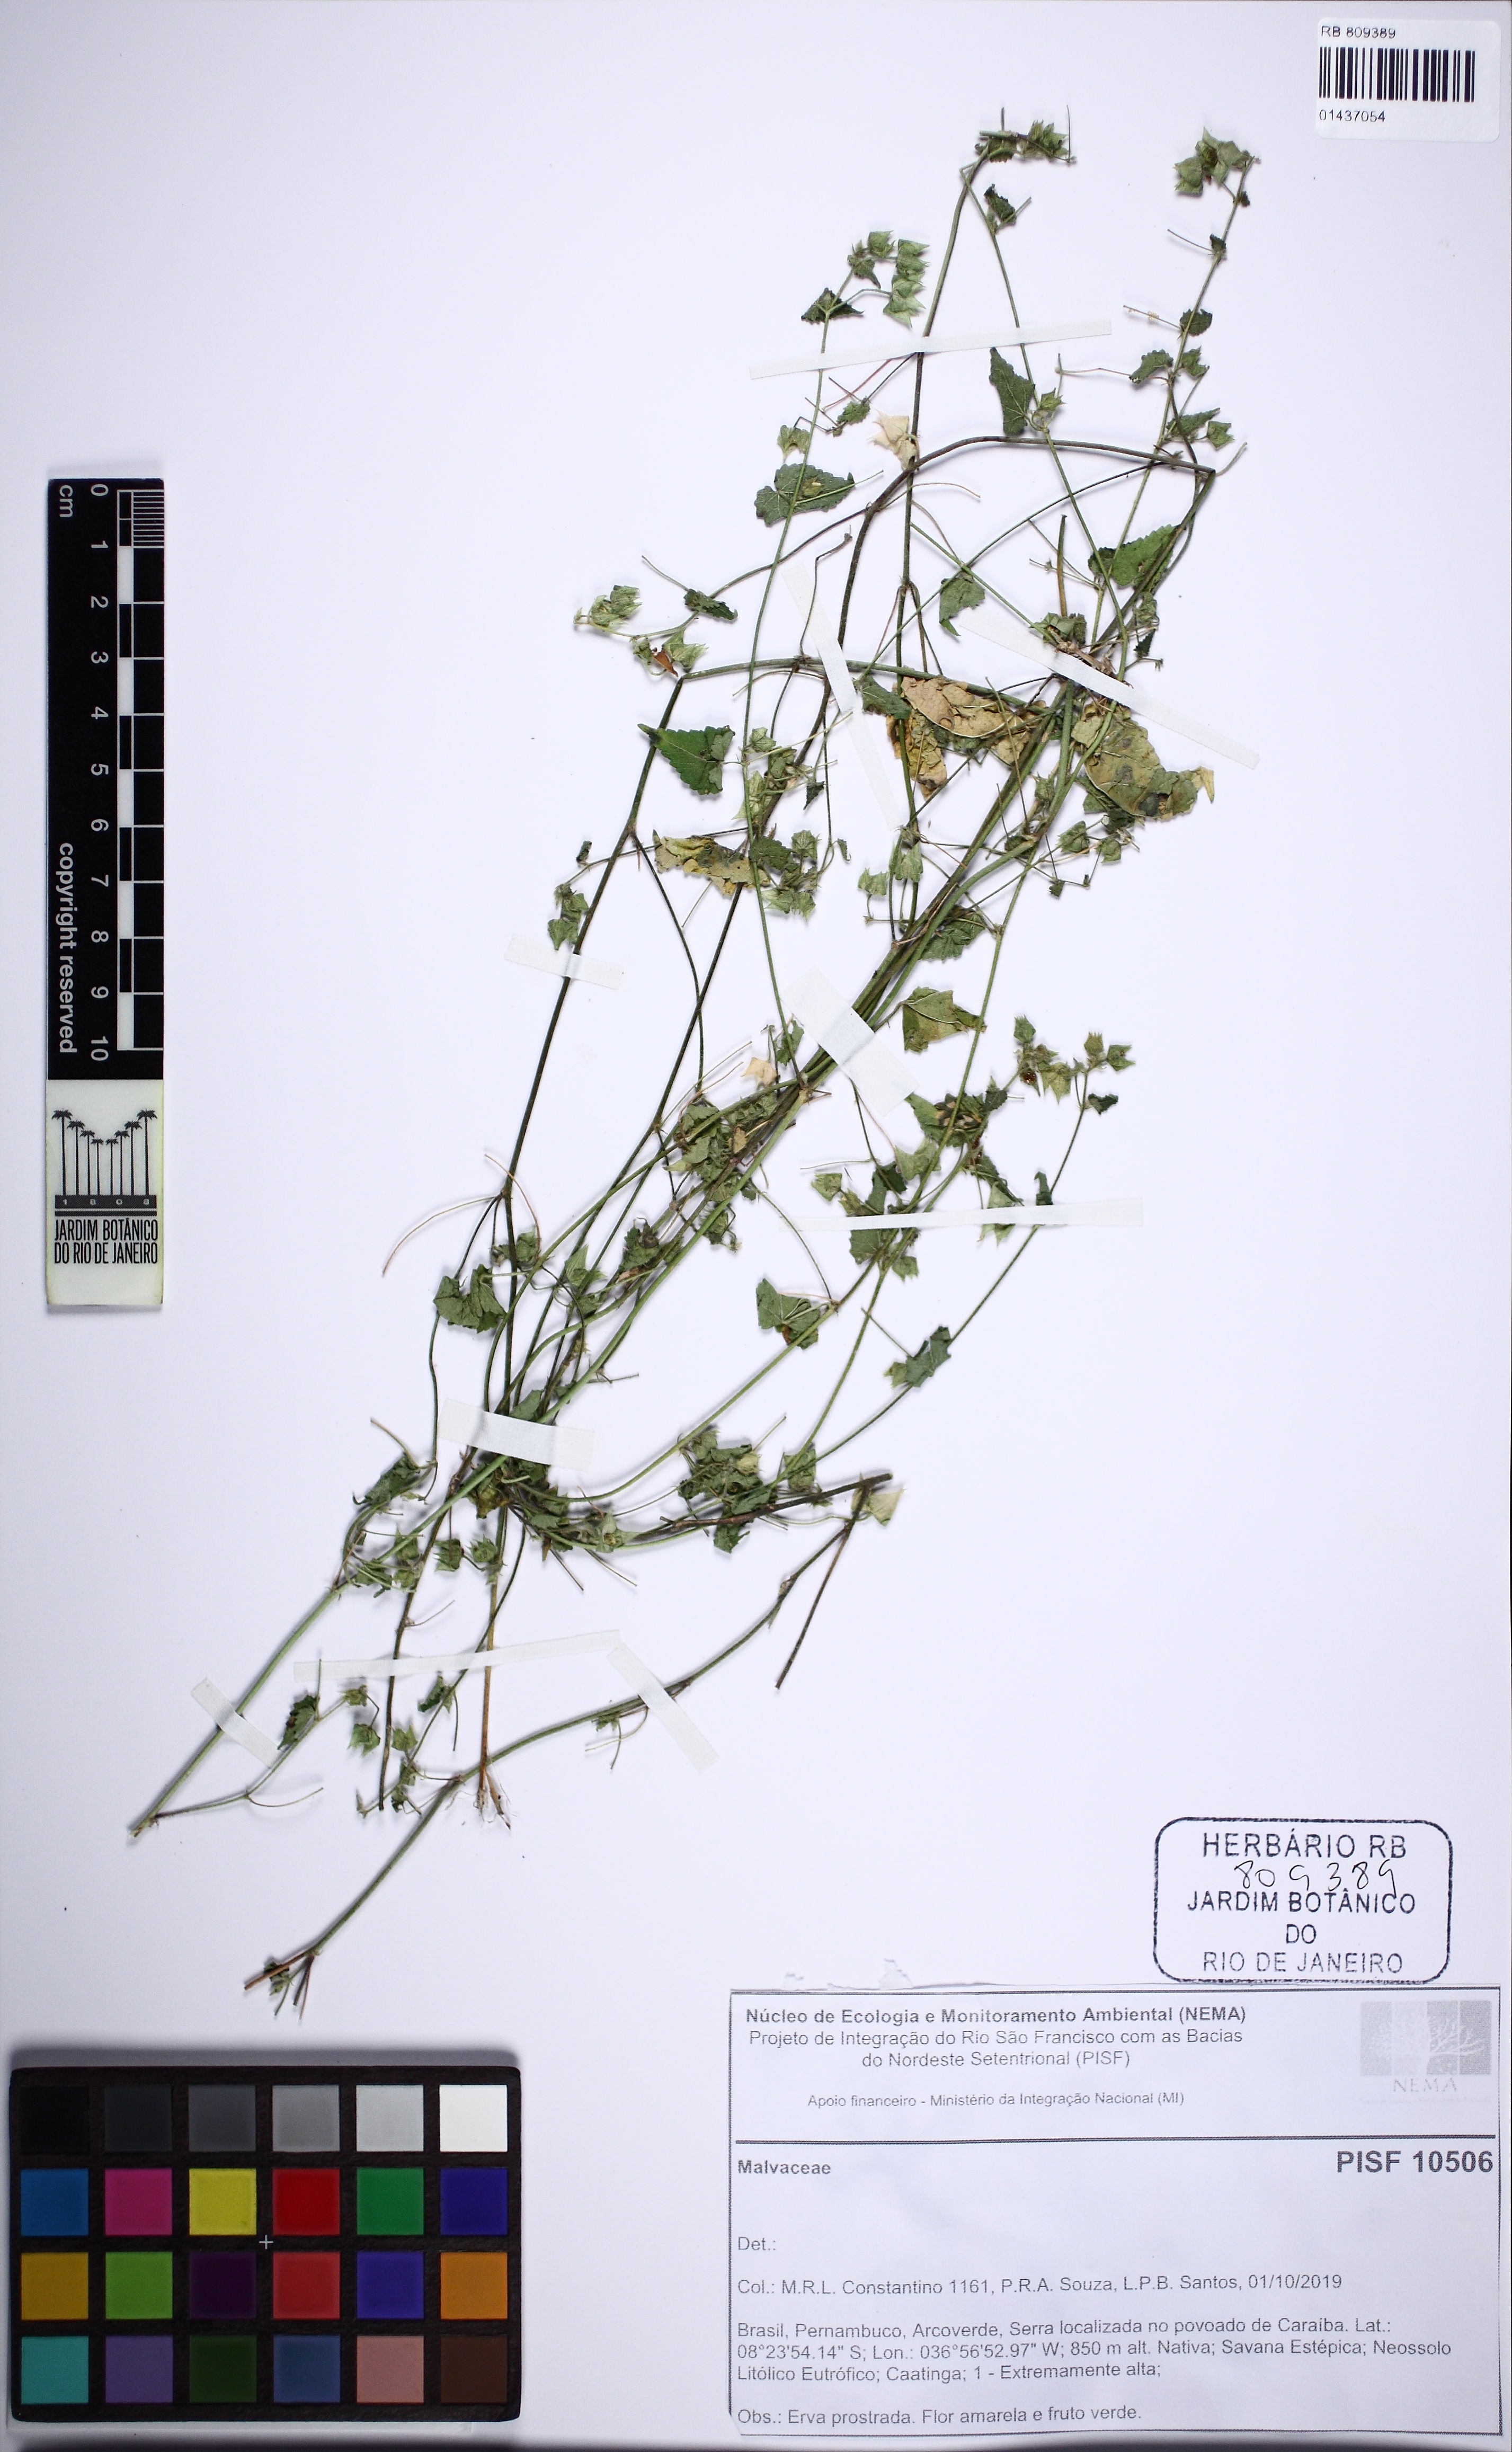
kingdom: Plantae
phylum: Tracheophyta
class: Magnoliopsida
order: Malvales
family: Malvaceae
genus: Sida
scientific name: Sida luschnathiana
